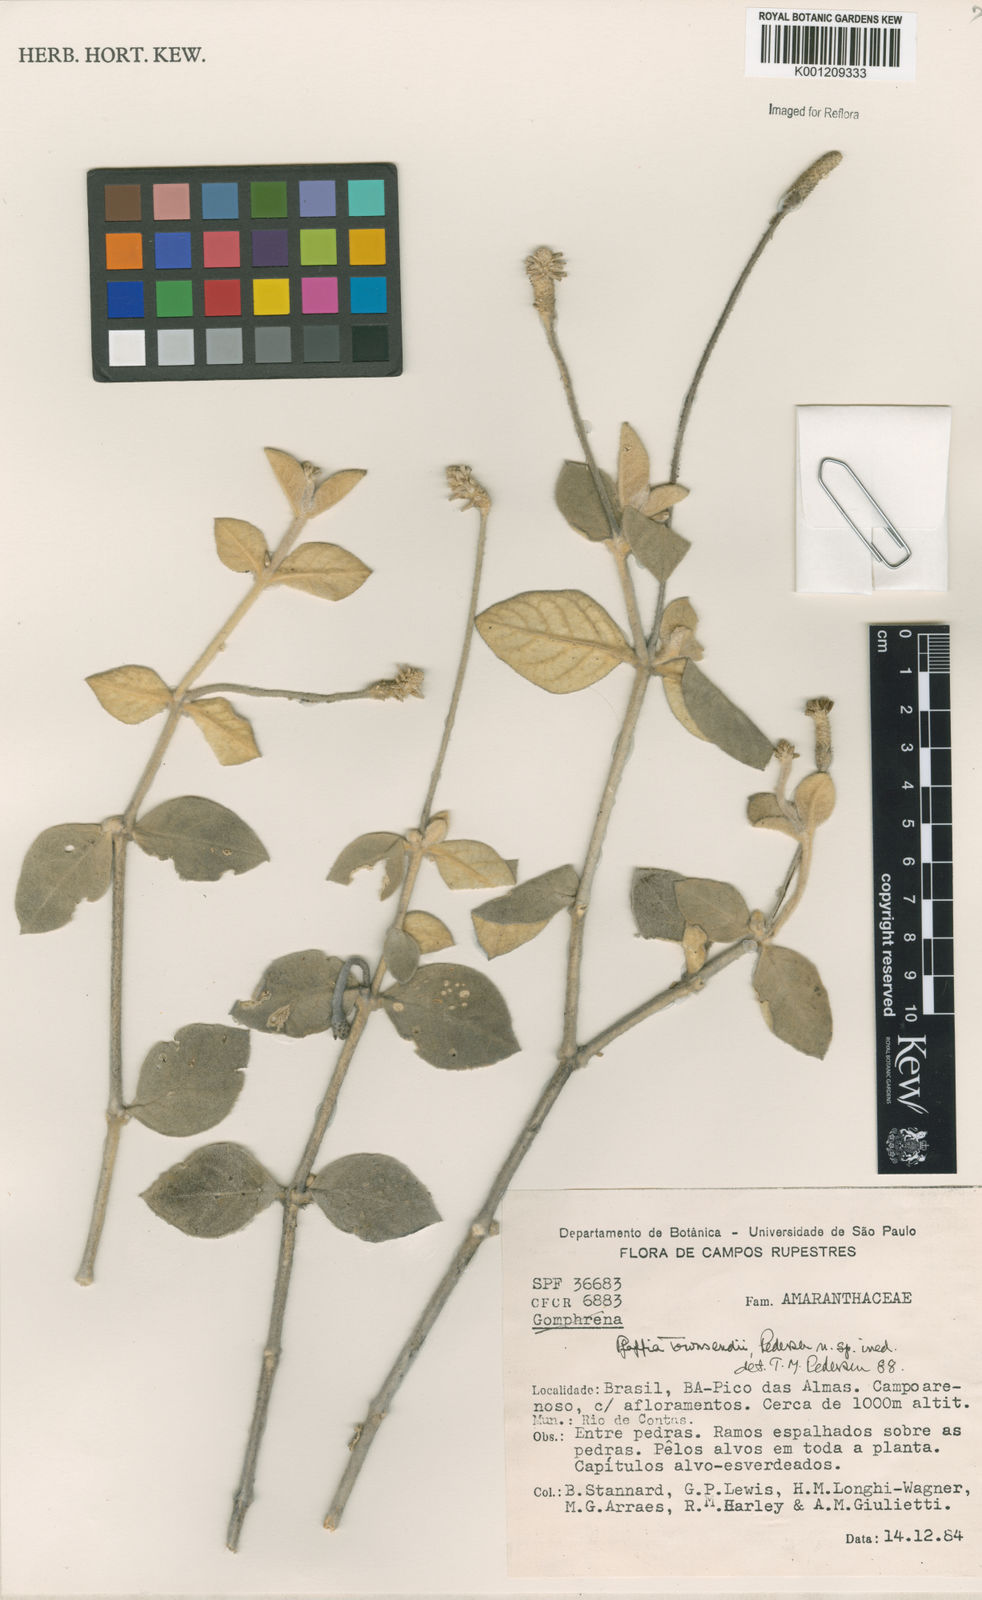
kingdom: Plantae
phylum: Tracheophyta
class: Magnoliopsida
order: Caryophyllales
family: Amaranthaceae
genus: Pfaffia
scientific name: Pfaffia townsendii
